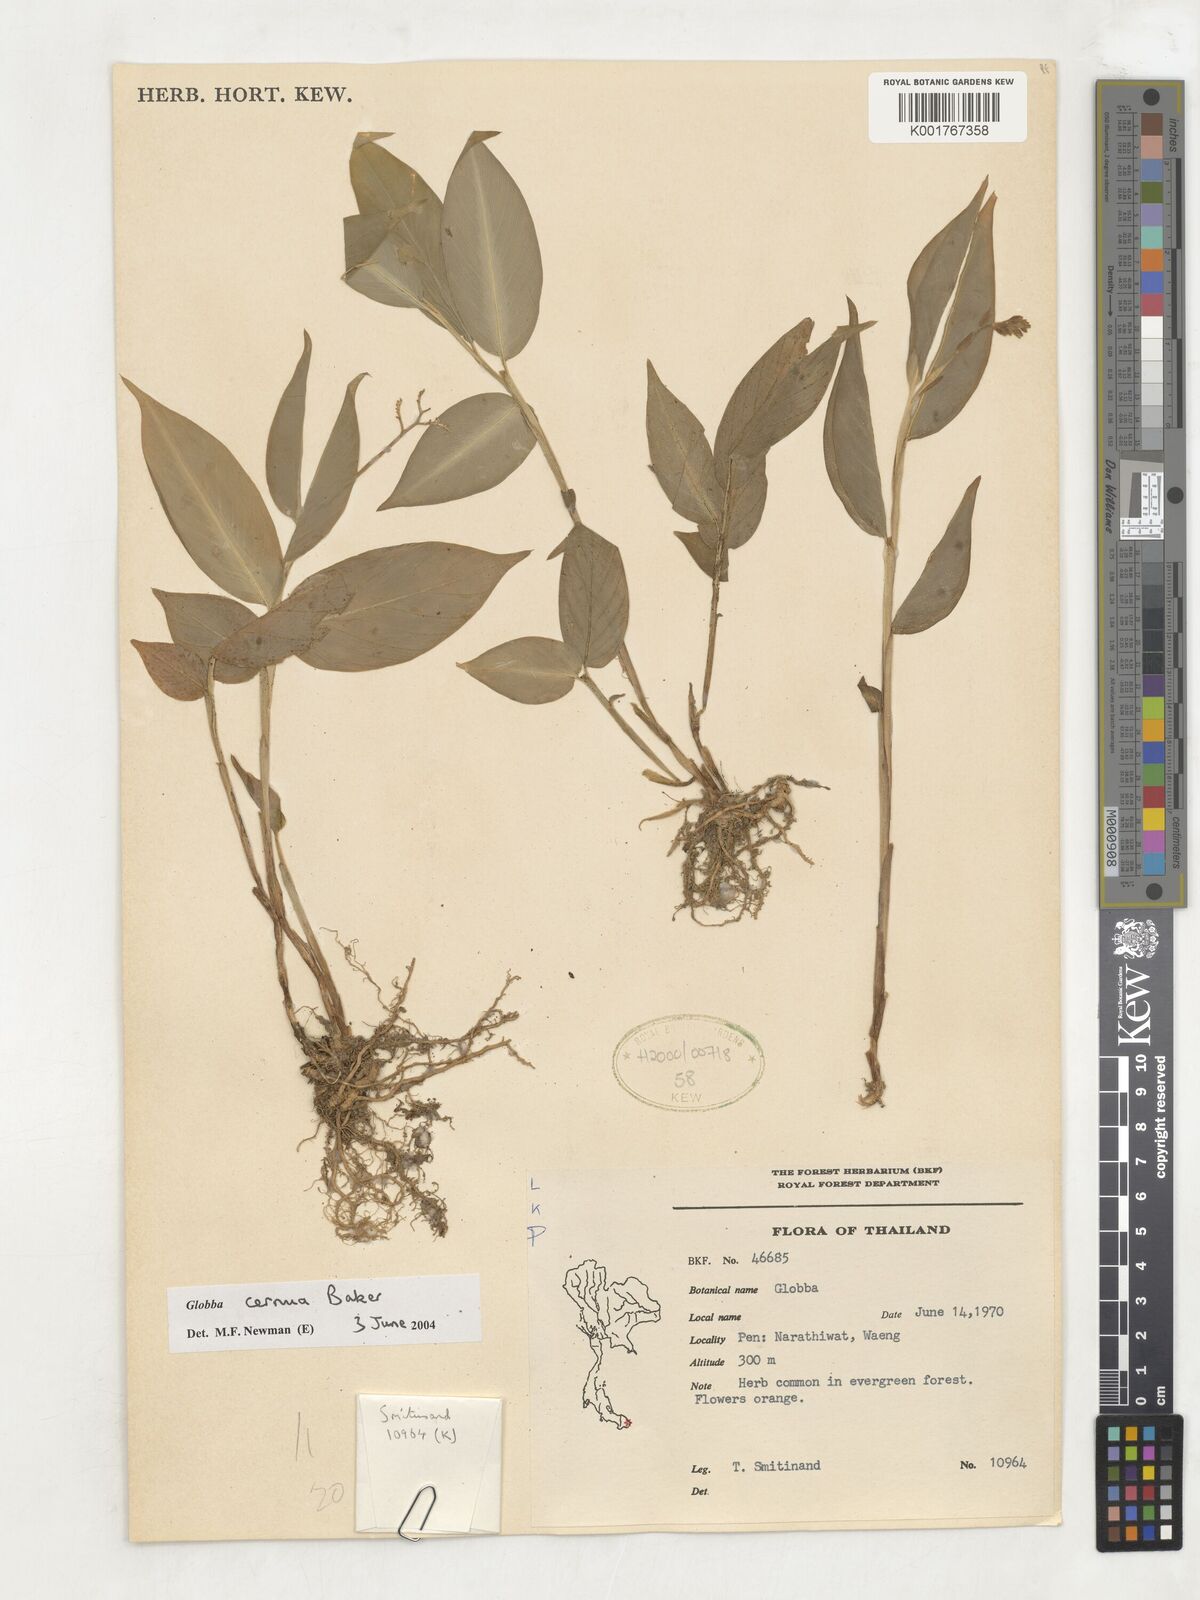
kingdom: Plantae
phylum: Tracheophyta
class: Liliopsida
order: Zingiberales
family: Zingiberaceae
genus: Globba
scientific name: Globba cernua
